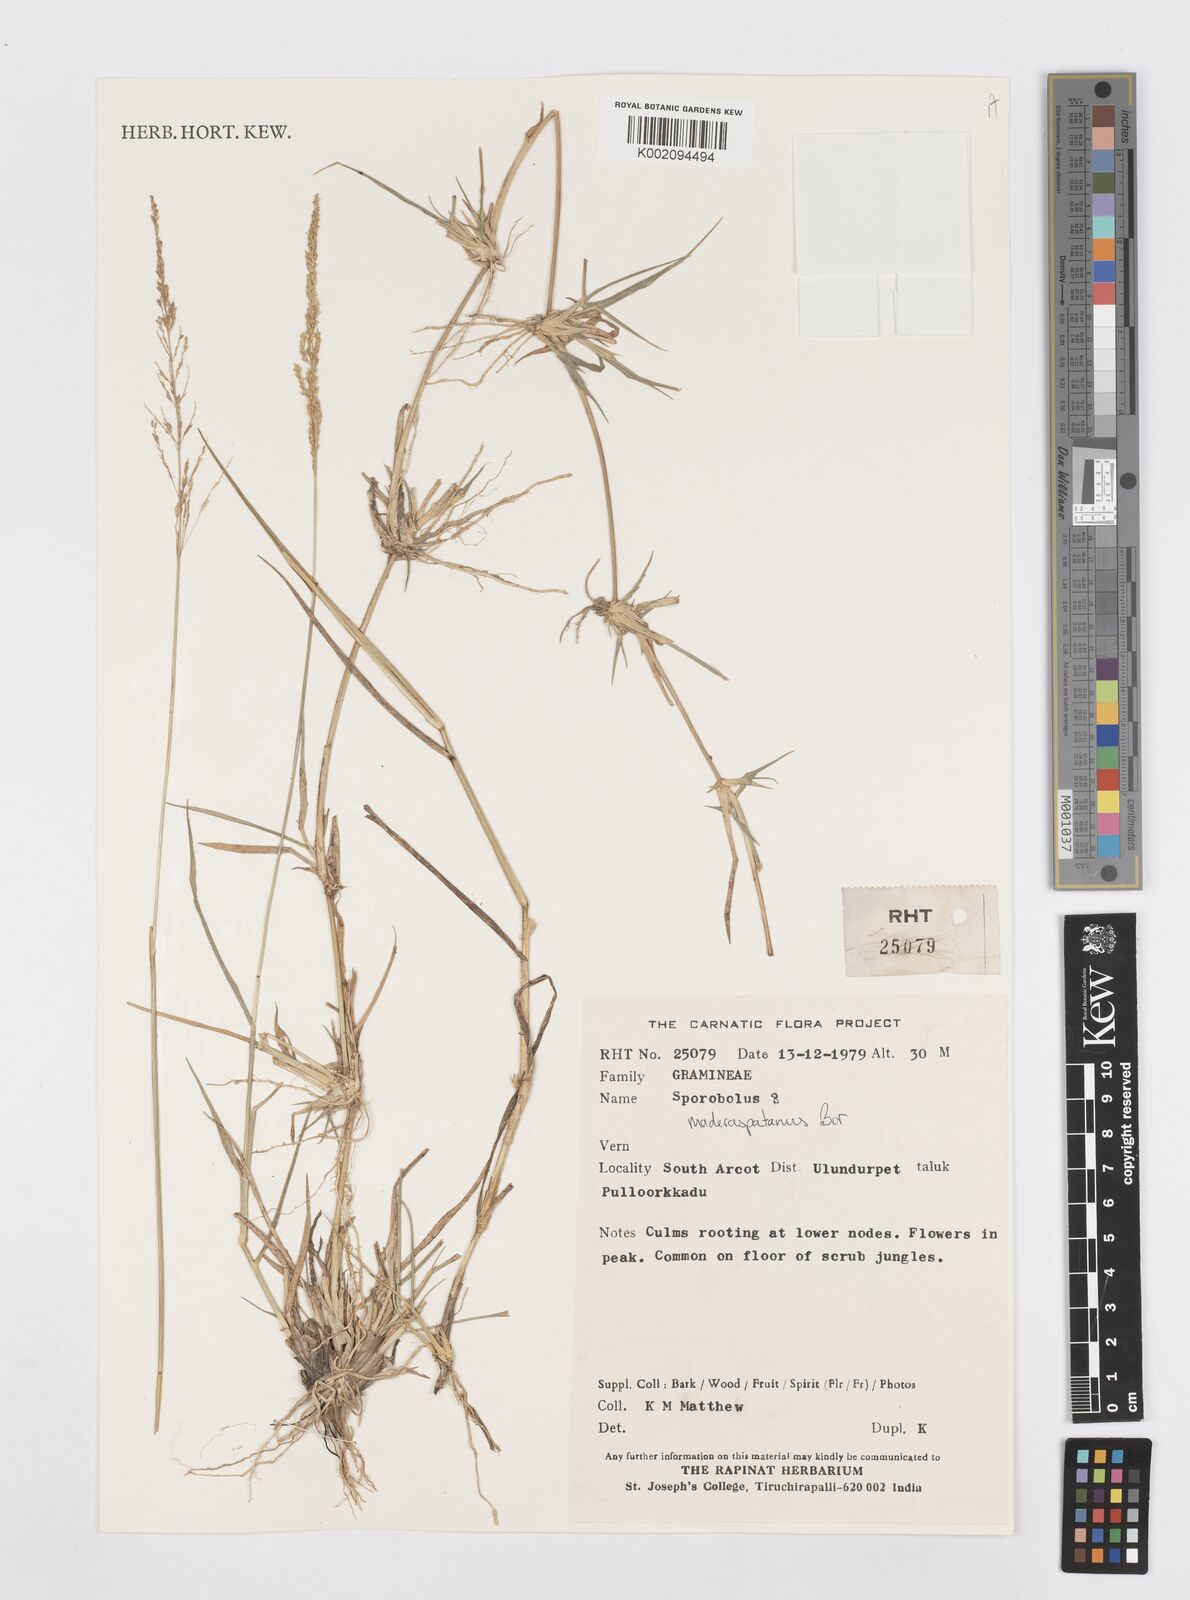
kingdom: Plantae
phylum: Tracheophyta
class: Liliopsida
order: Poales
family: Poaceae
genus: Sporobolus
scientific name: Sporobolus maderaspatanus
